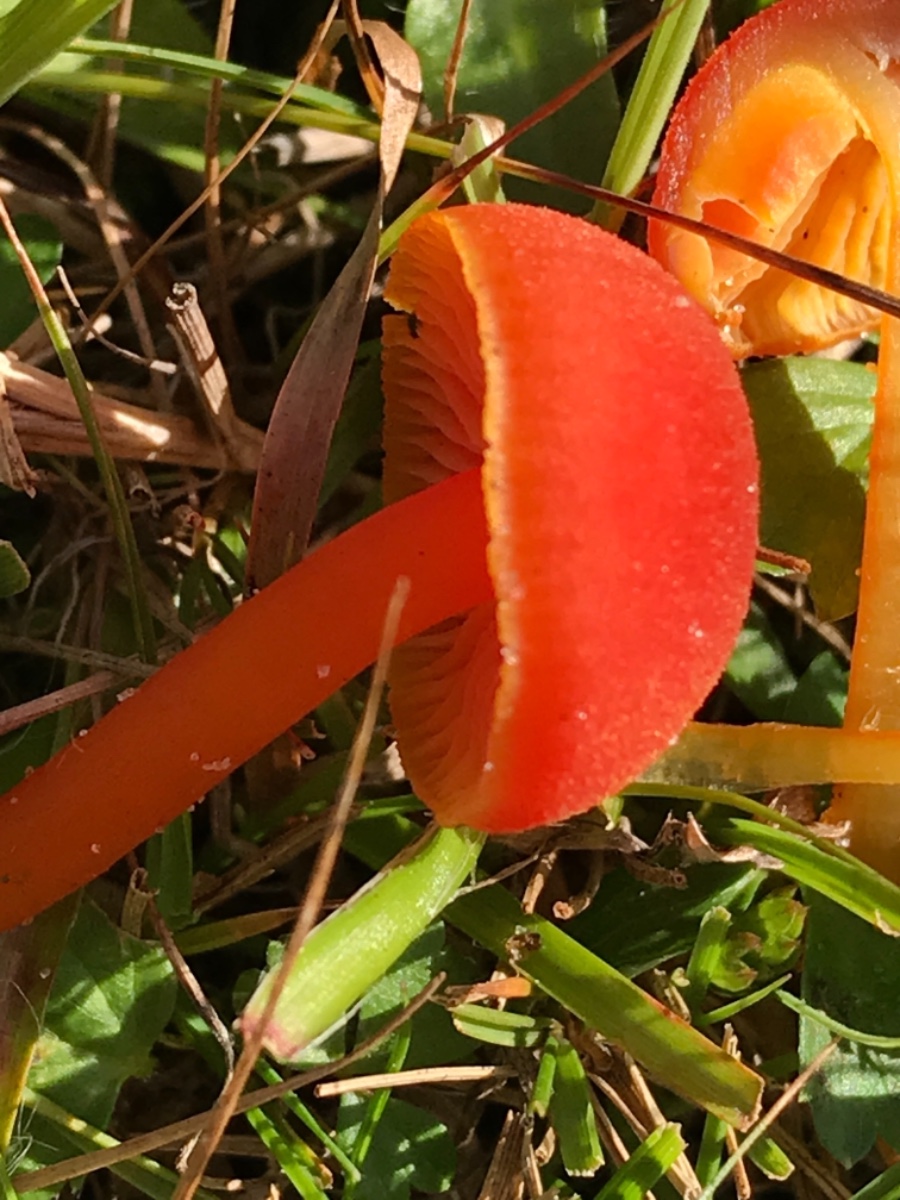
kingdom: Fungi
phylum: Basidiomycota
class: Agaricomycetes
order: Agaricales
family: Hygrophoraceae
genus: Hygrocybe
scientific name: Hygrocybe miniata
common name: mønje-vokshat
